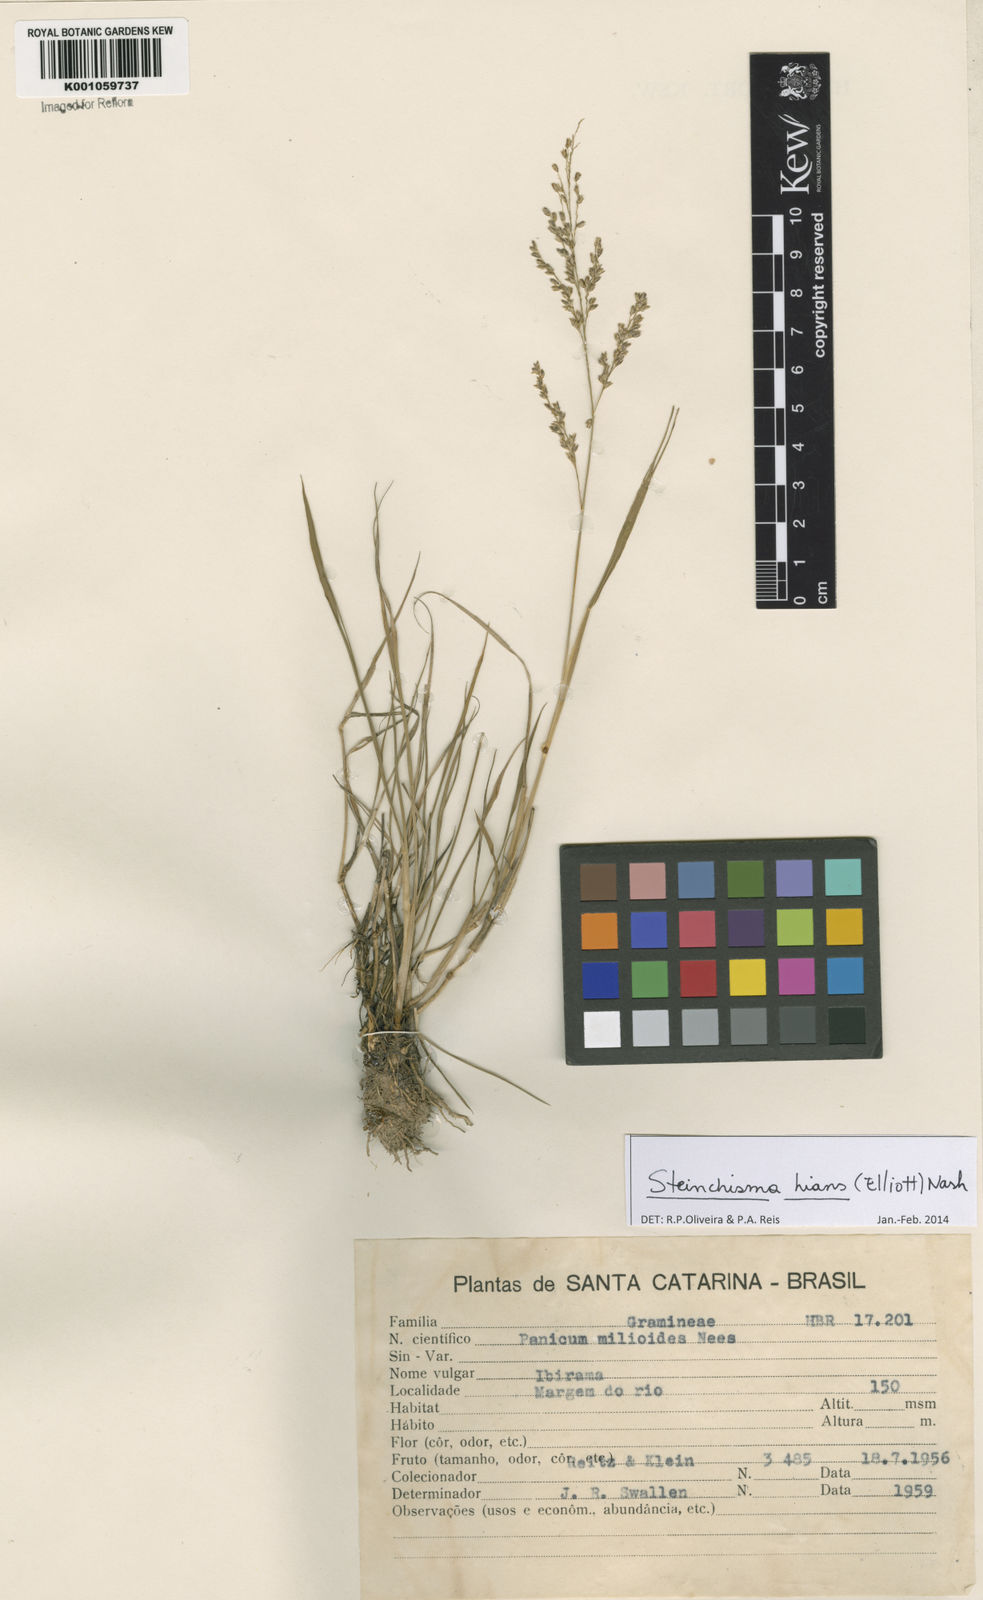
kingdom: Plantae
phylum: Tracheophyta
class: Liliopsida
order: Poales
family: Poaceae
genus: Steinchisma
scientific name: Steinchisma hians
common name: Gaping panic grass
